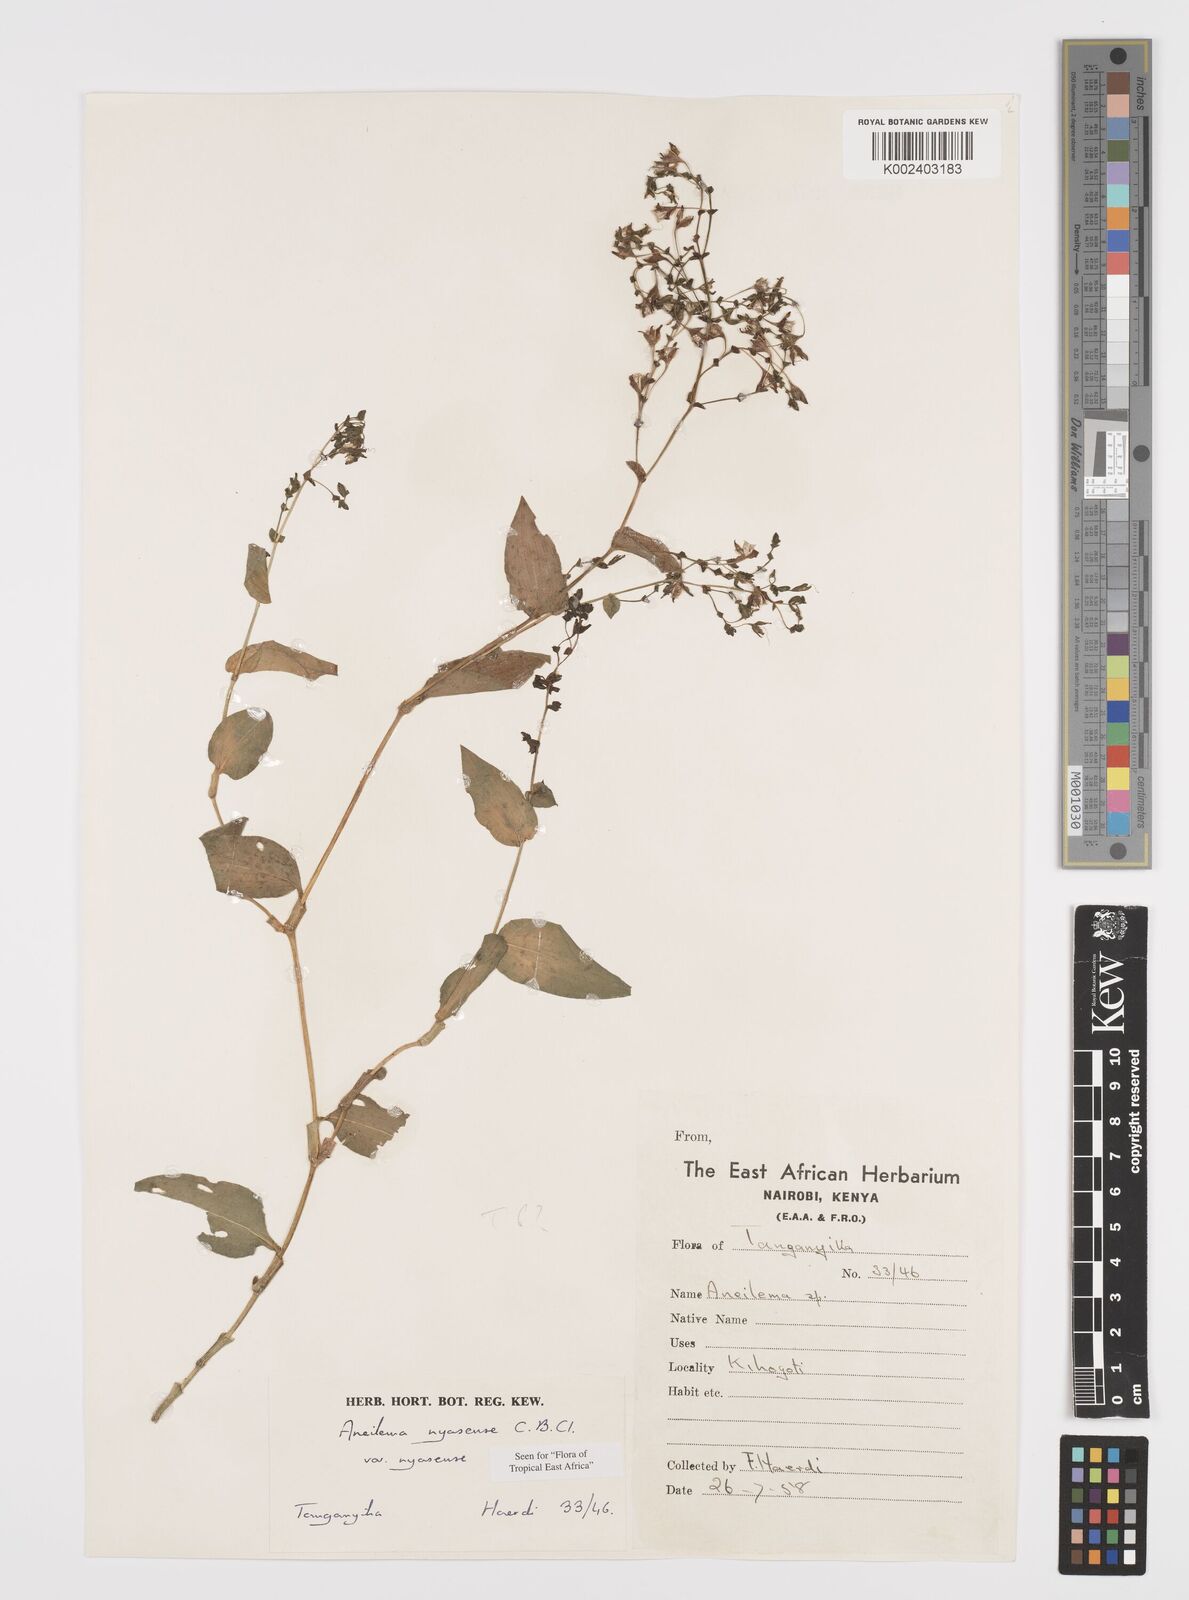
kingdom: Plantae
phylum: Tracheophyta
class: Liliopsida
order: Commelinales
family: Commelinaceae
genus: Aneilema
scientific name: Aneilema nyasense
